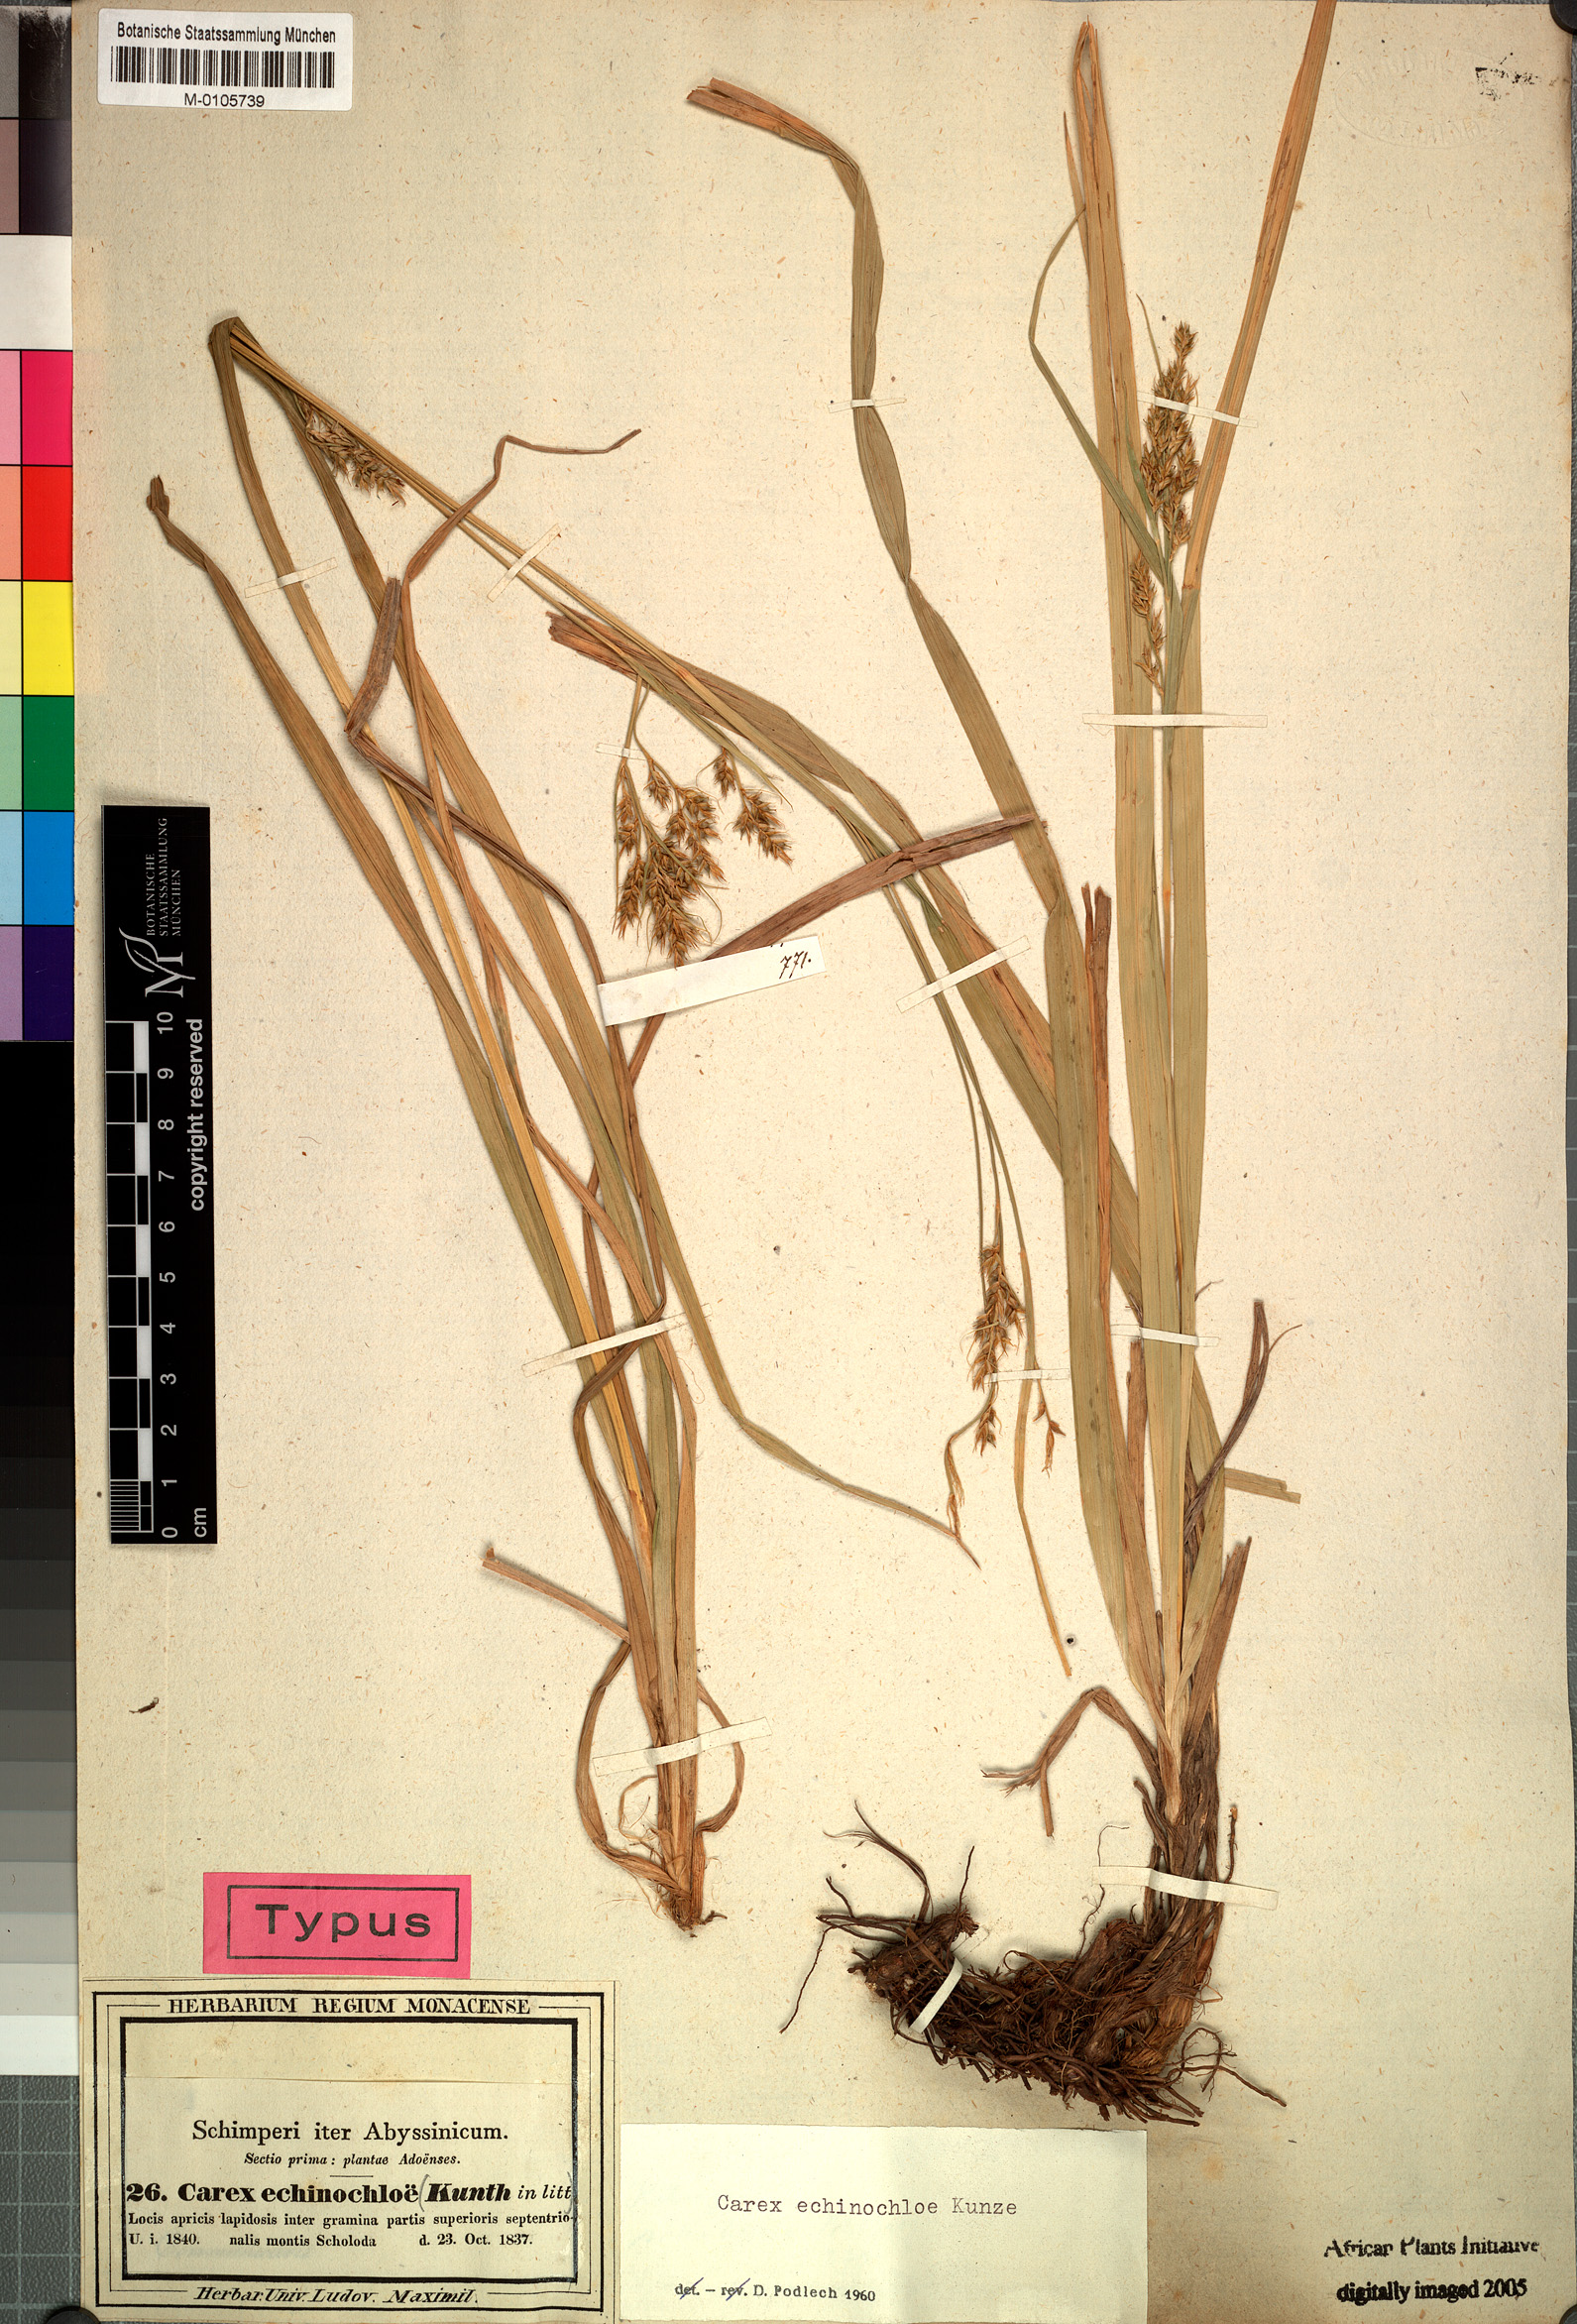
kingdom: Plantae
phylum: Tracheophyta
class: Liliopsida
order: Poales
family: Cyperaceae
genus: Carex
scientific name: Carex echinochloe
